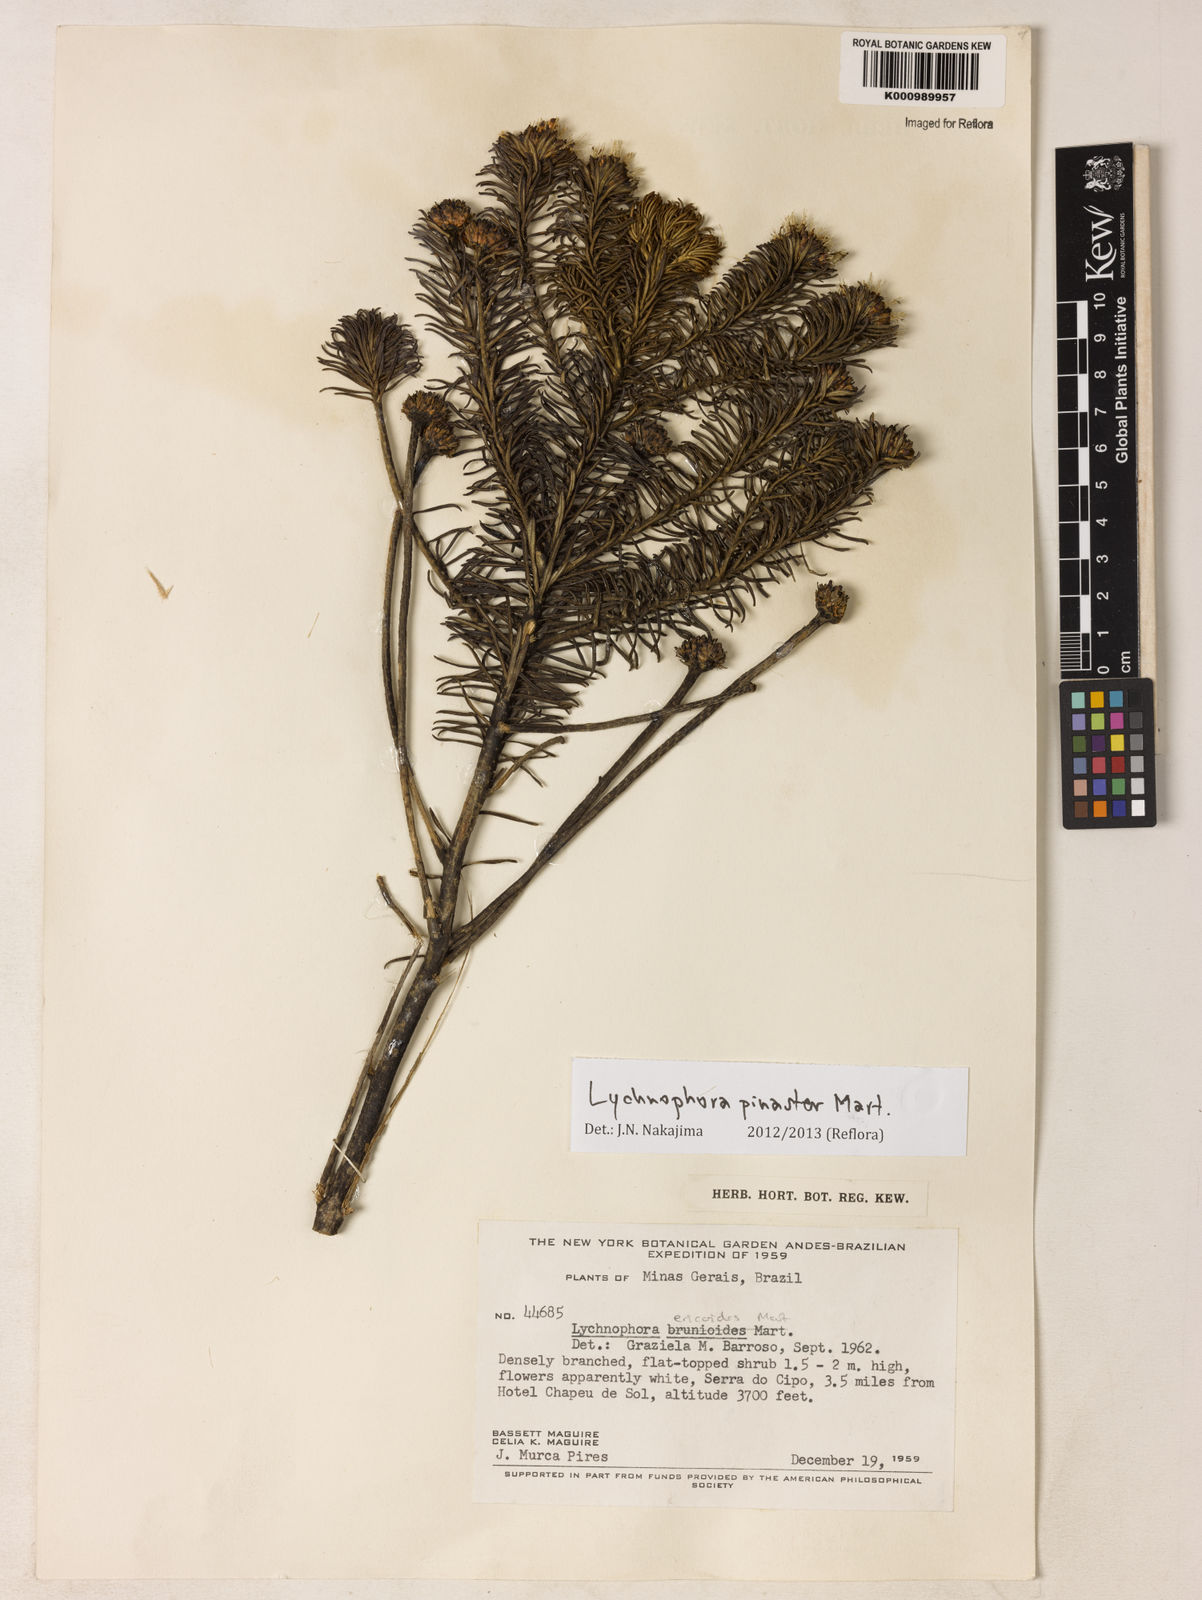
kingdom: Plantae
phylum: Tracheophyta
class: Magnoliopsida
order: Asterales
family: Asteraceae
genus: Lychnophora
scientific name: Lychnophora pinaster
